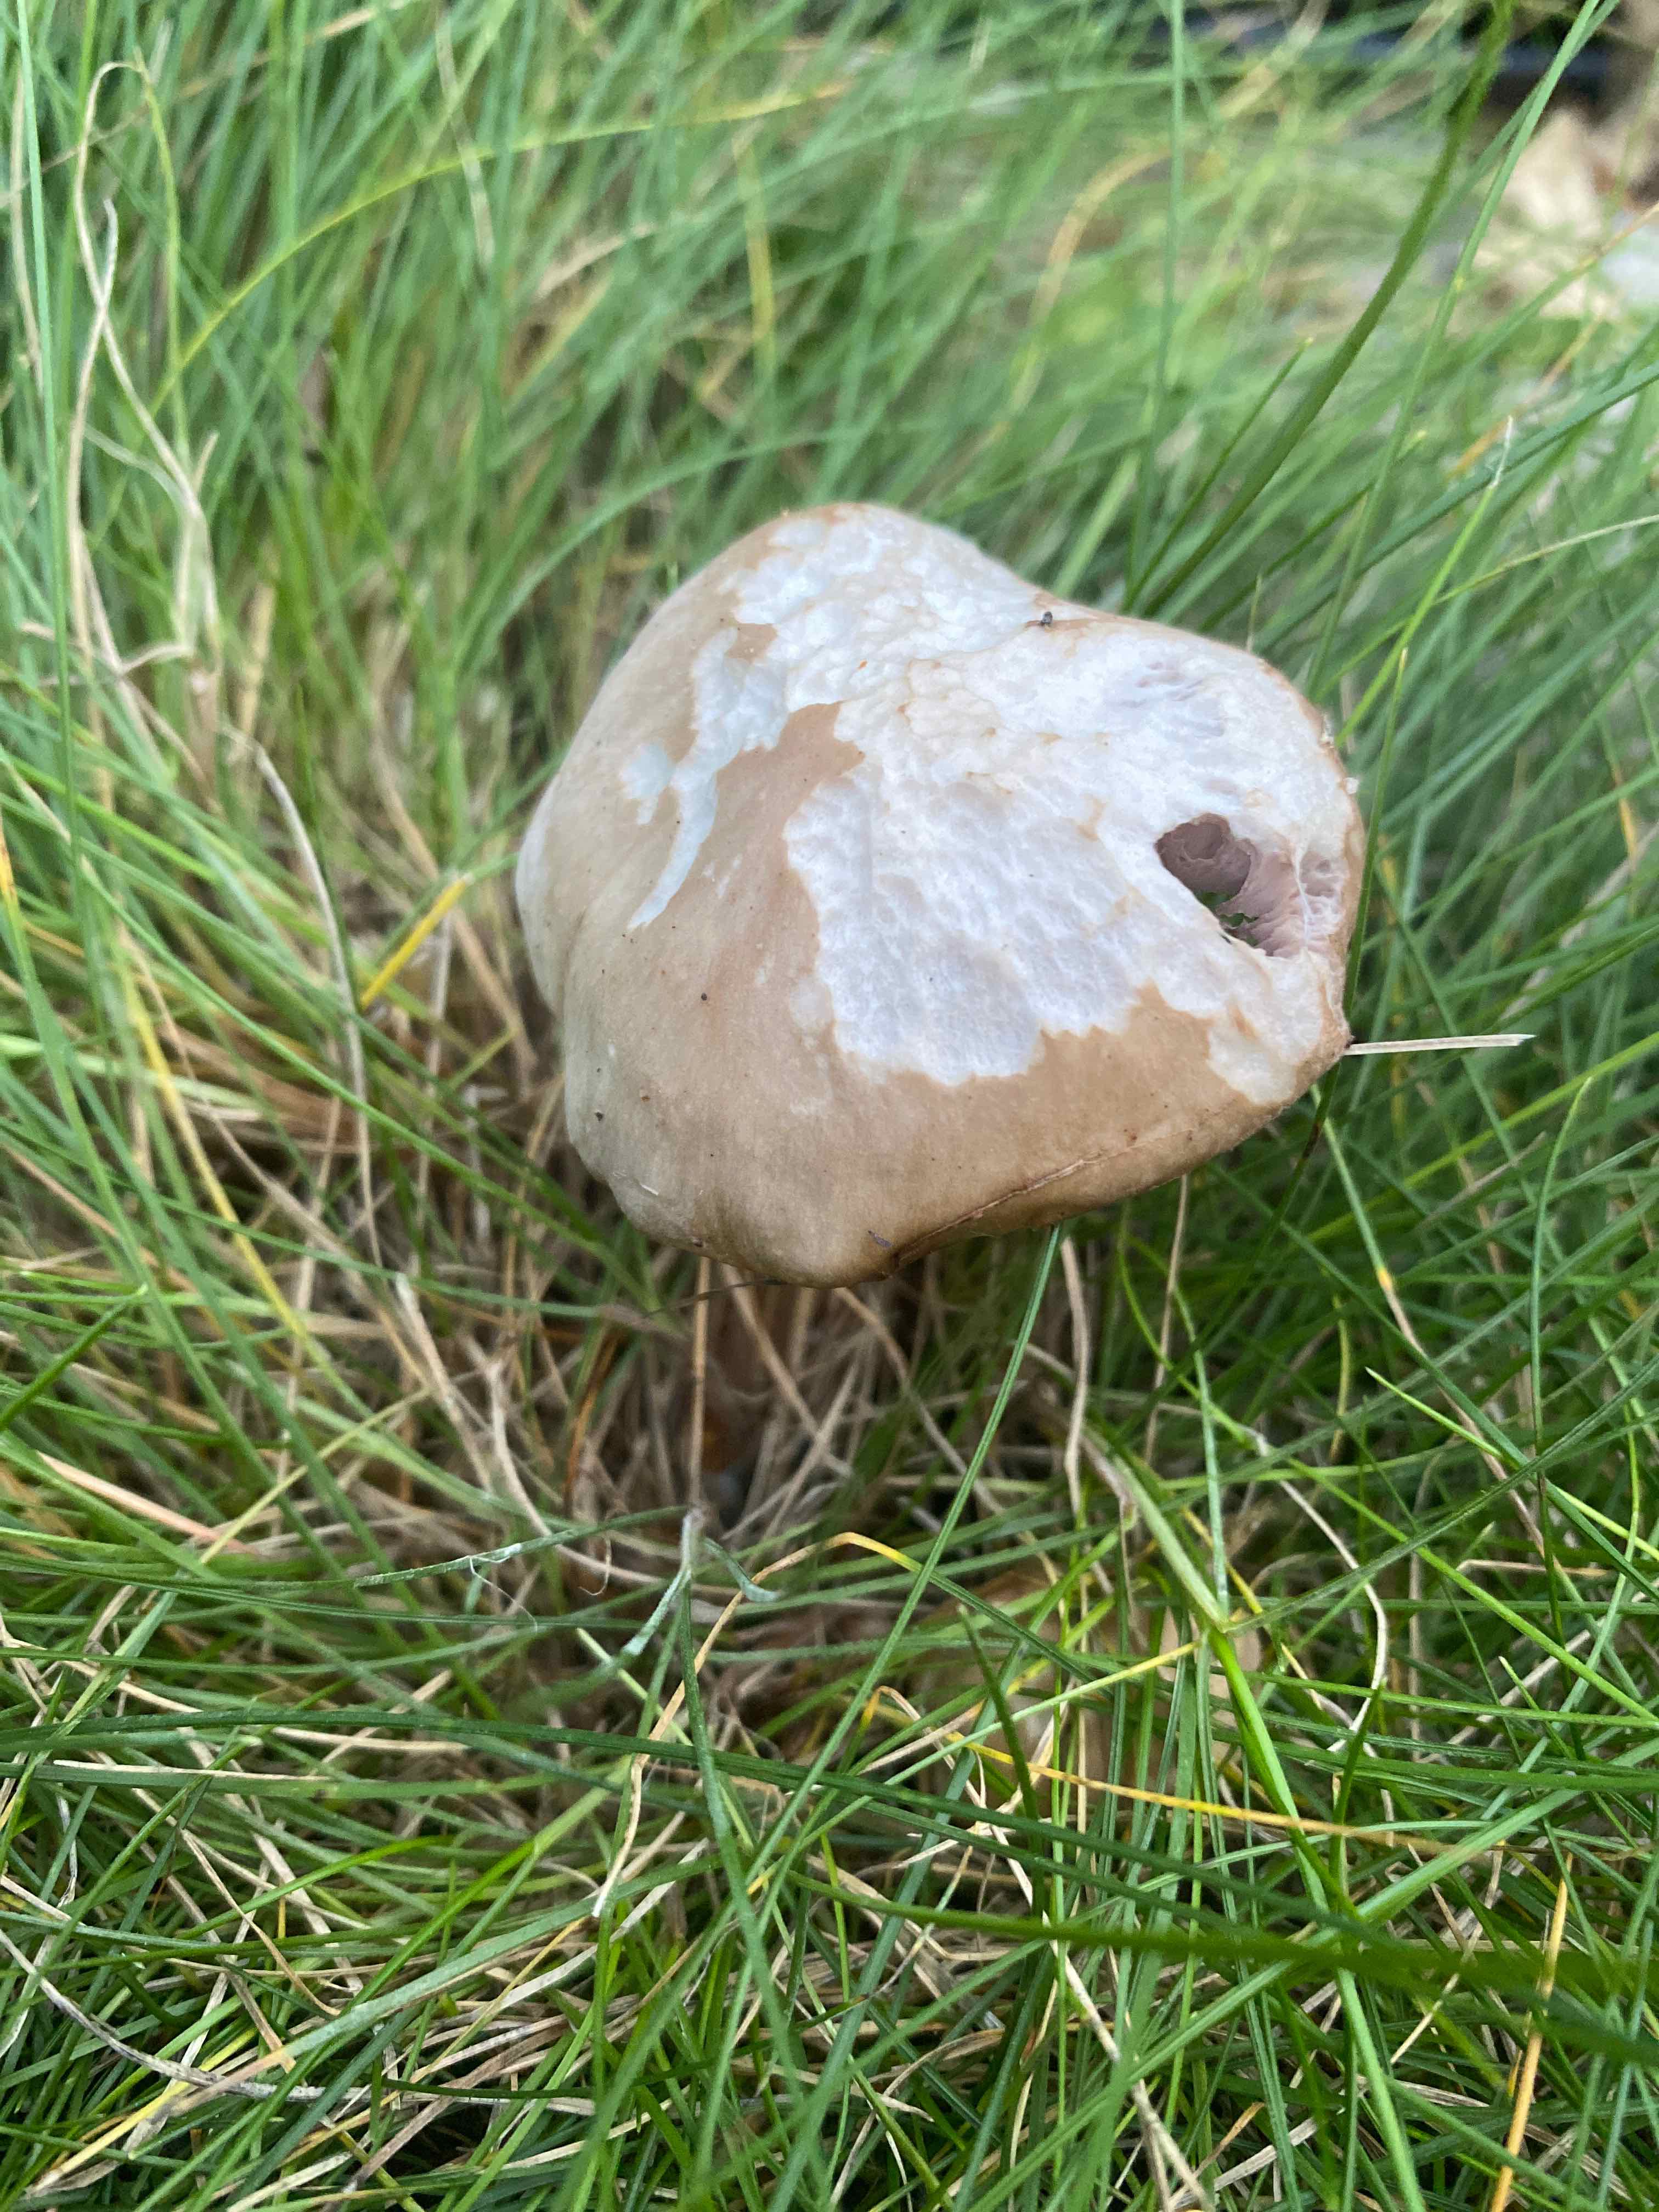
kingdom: Fungi
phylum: Basidiomycota
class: Agaricomycetes
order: Agaricales
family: Tricholomataceae
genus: Lepista
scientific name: Lepista
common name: hekseringshat
